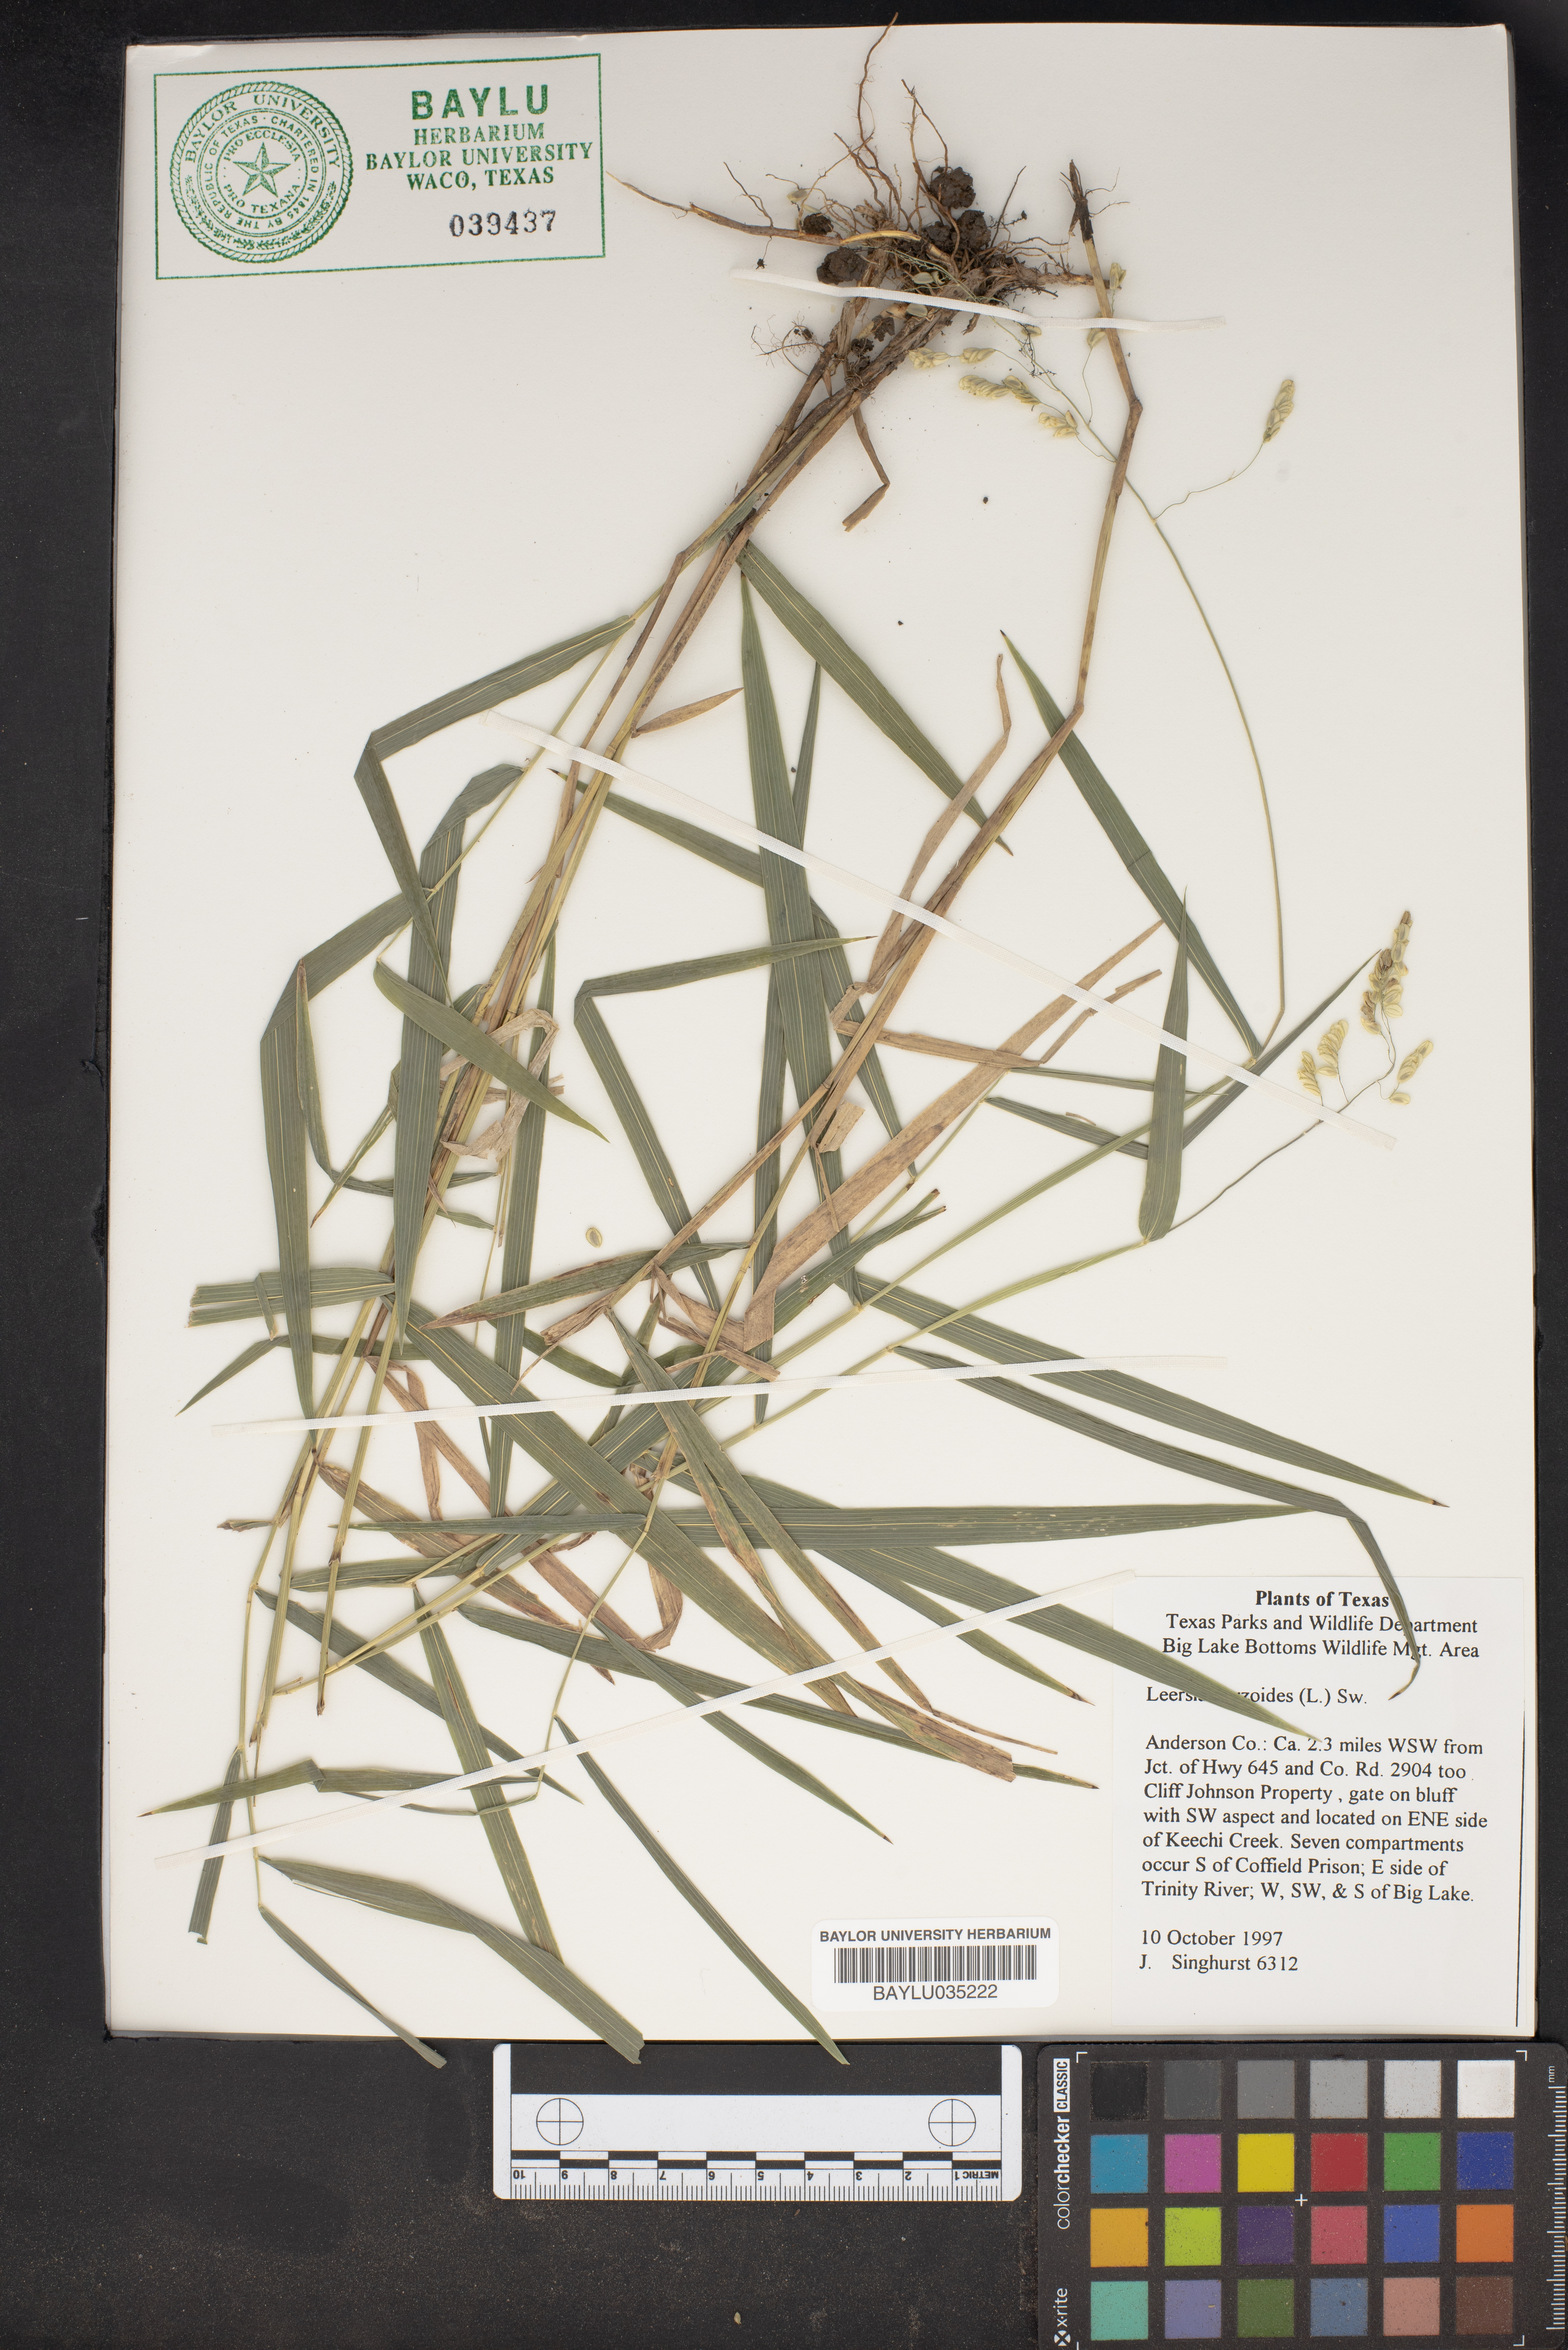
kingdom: Plantae
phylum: Tracheophyta
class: Liliopsida
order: Poales
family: Poaceae
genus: Leersia
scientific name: Leersia oryzoides
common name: Cut-grass
